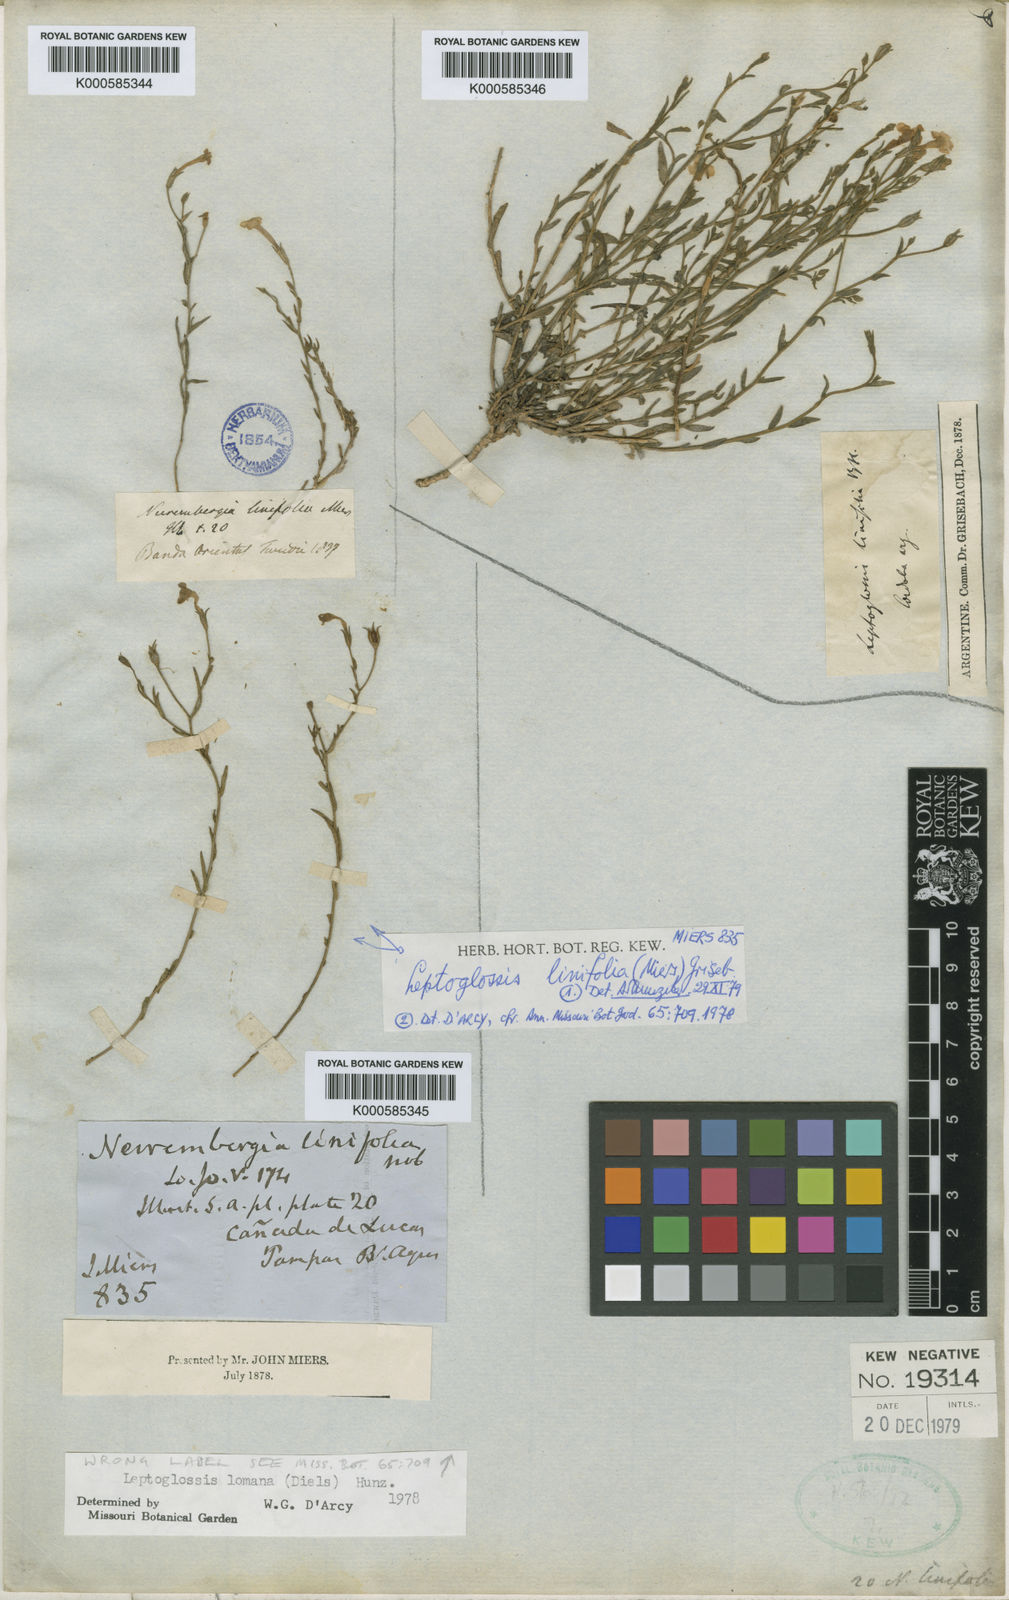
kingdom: Plantae
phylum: Tracheophyta
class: Magnoliopsida
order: Solanales
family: Solanaceae
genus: Leptoglossis
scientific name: Leptoglossis
